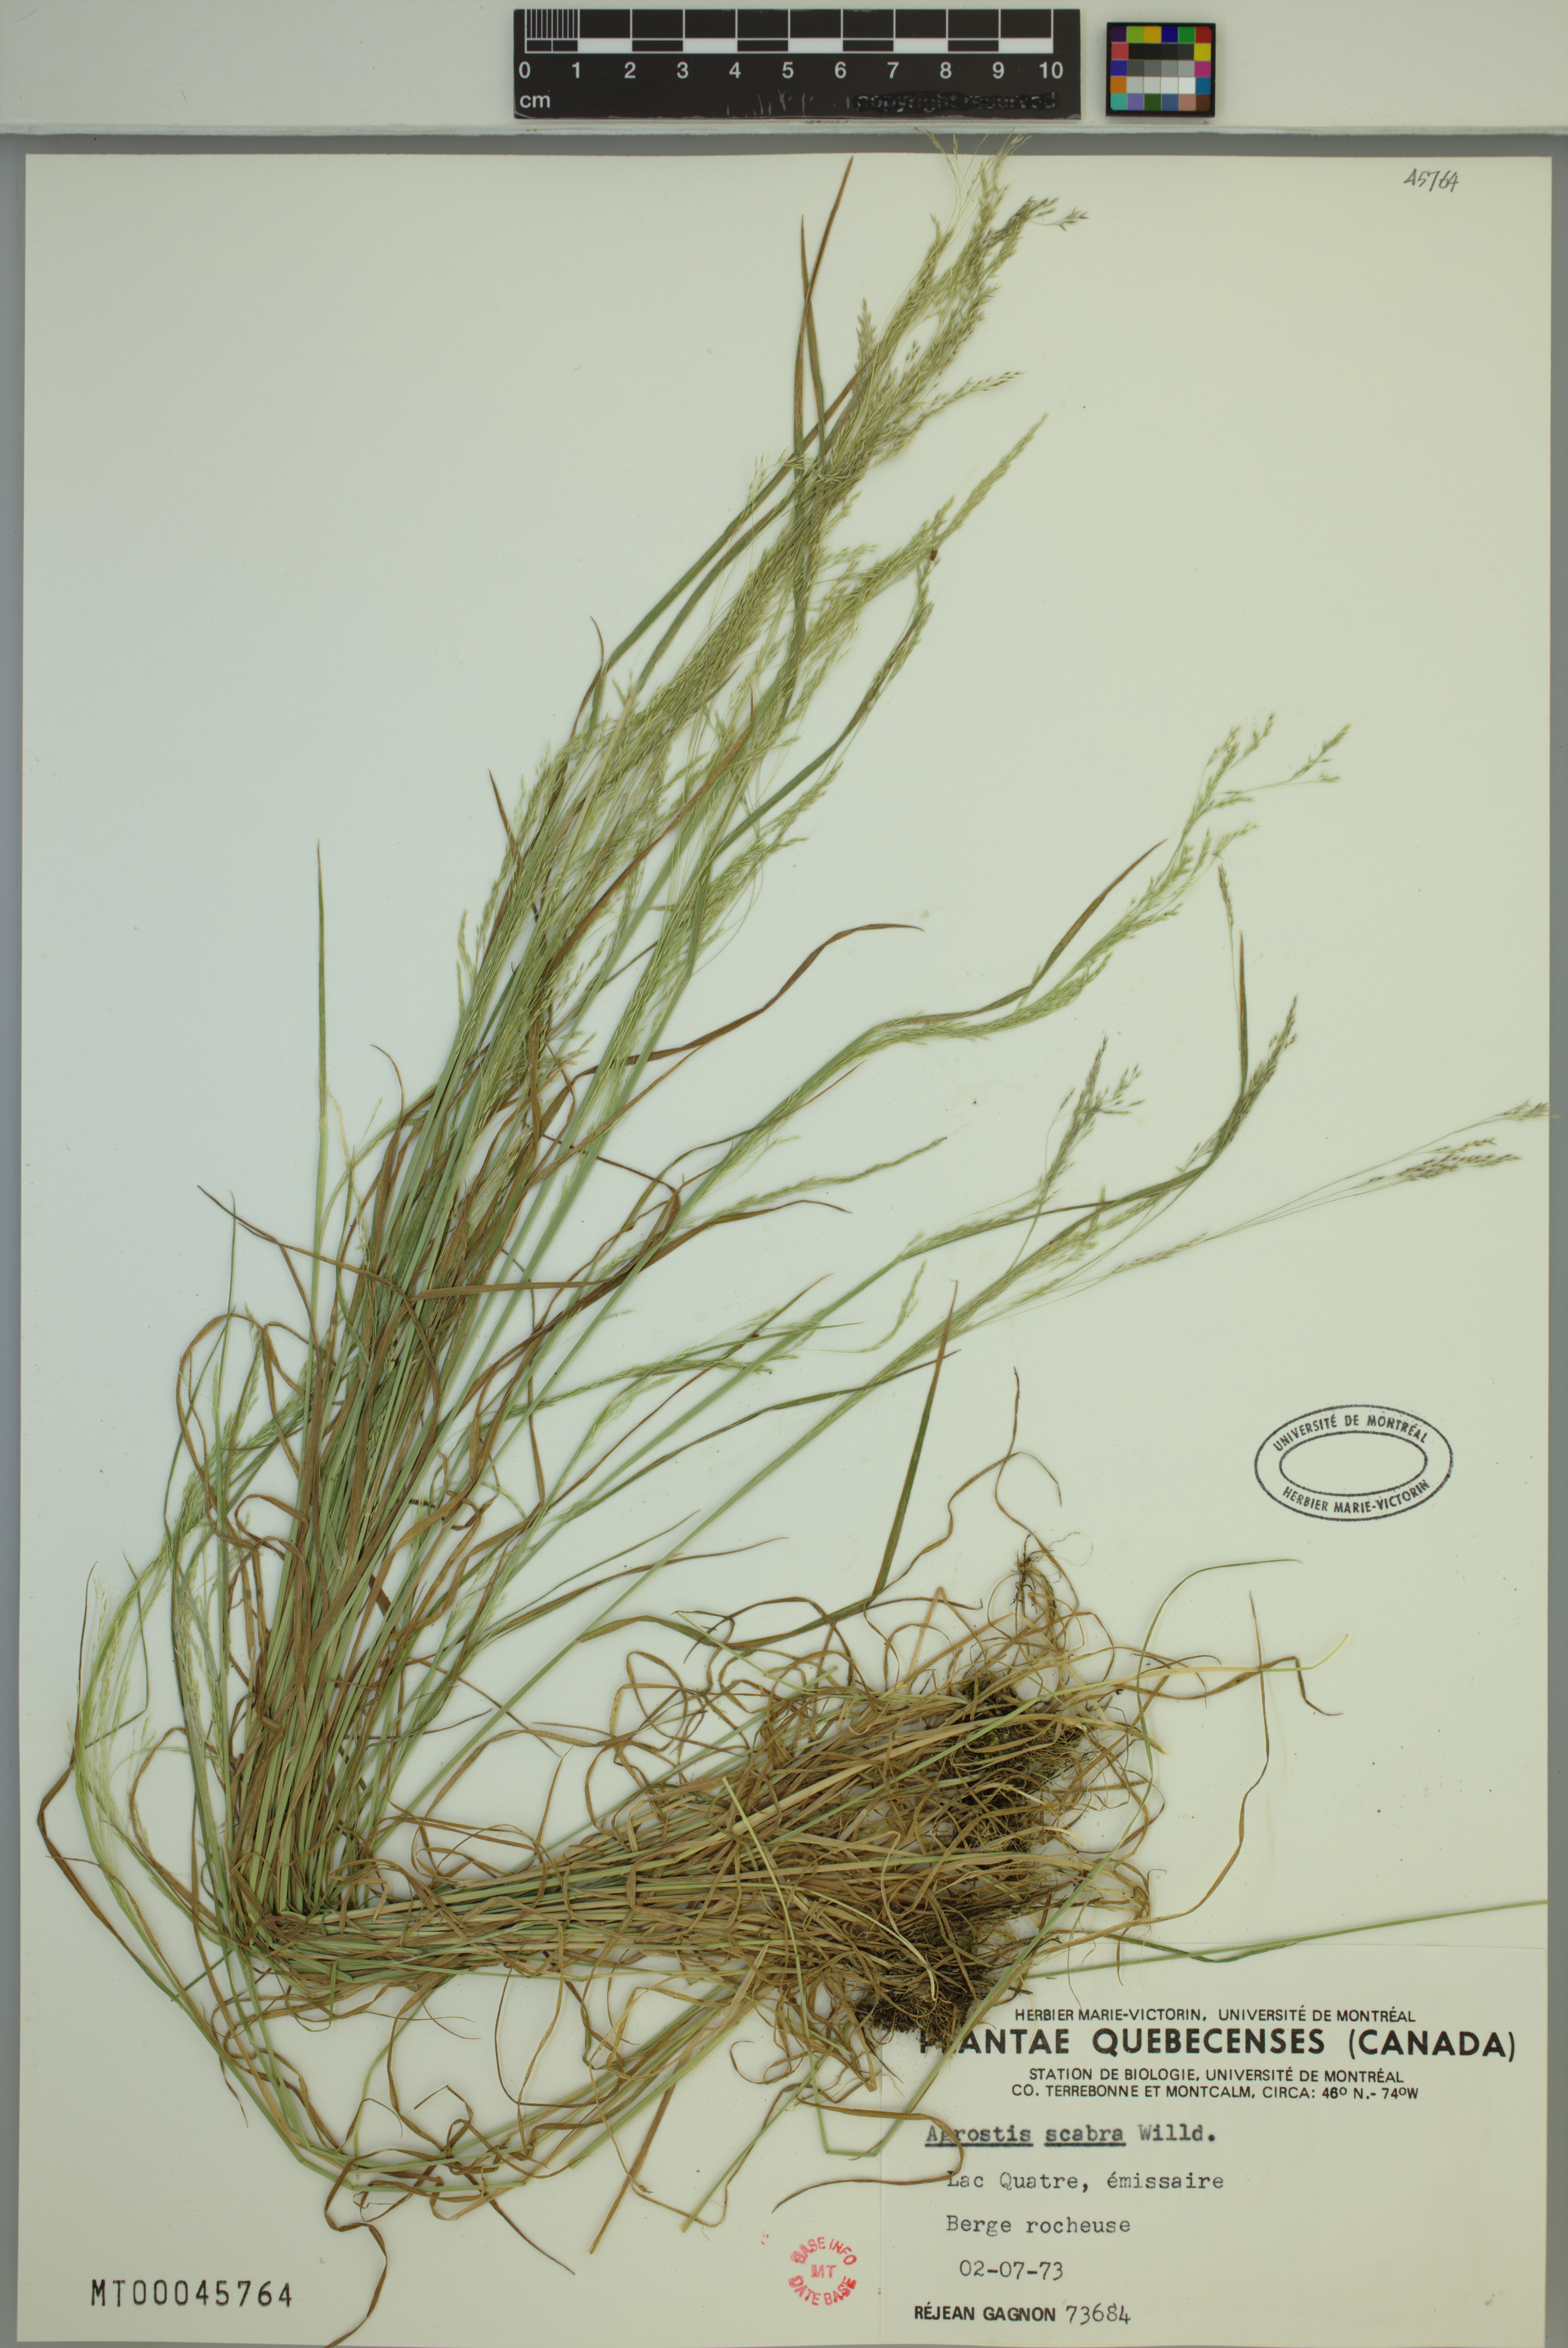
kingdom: Plantae
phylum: Tracheophyta
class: Liliopsida
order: Poales
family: Poaceae
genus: Agrostis
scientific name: Agrostis scabra
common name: Rough bent
